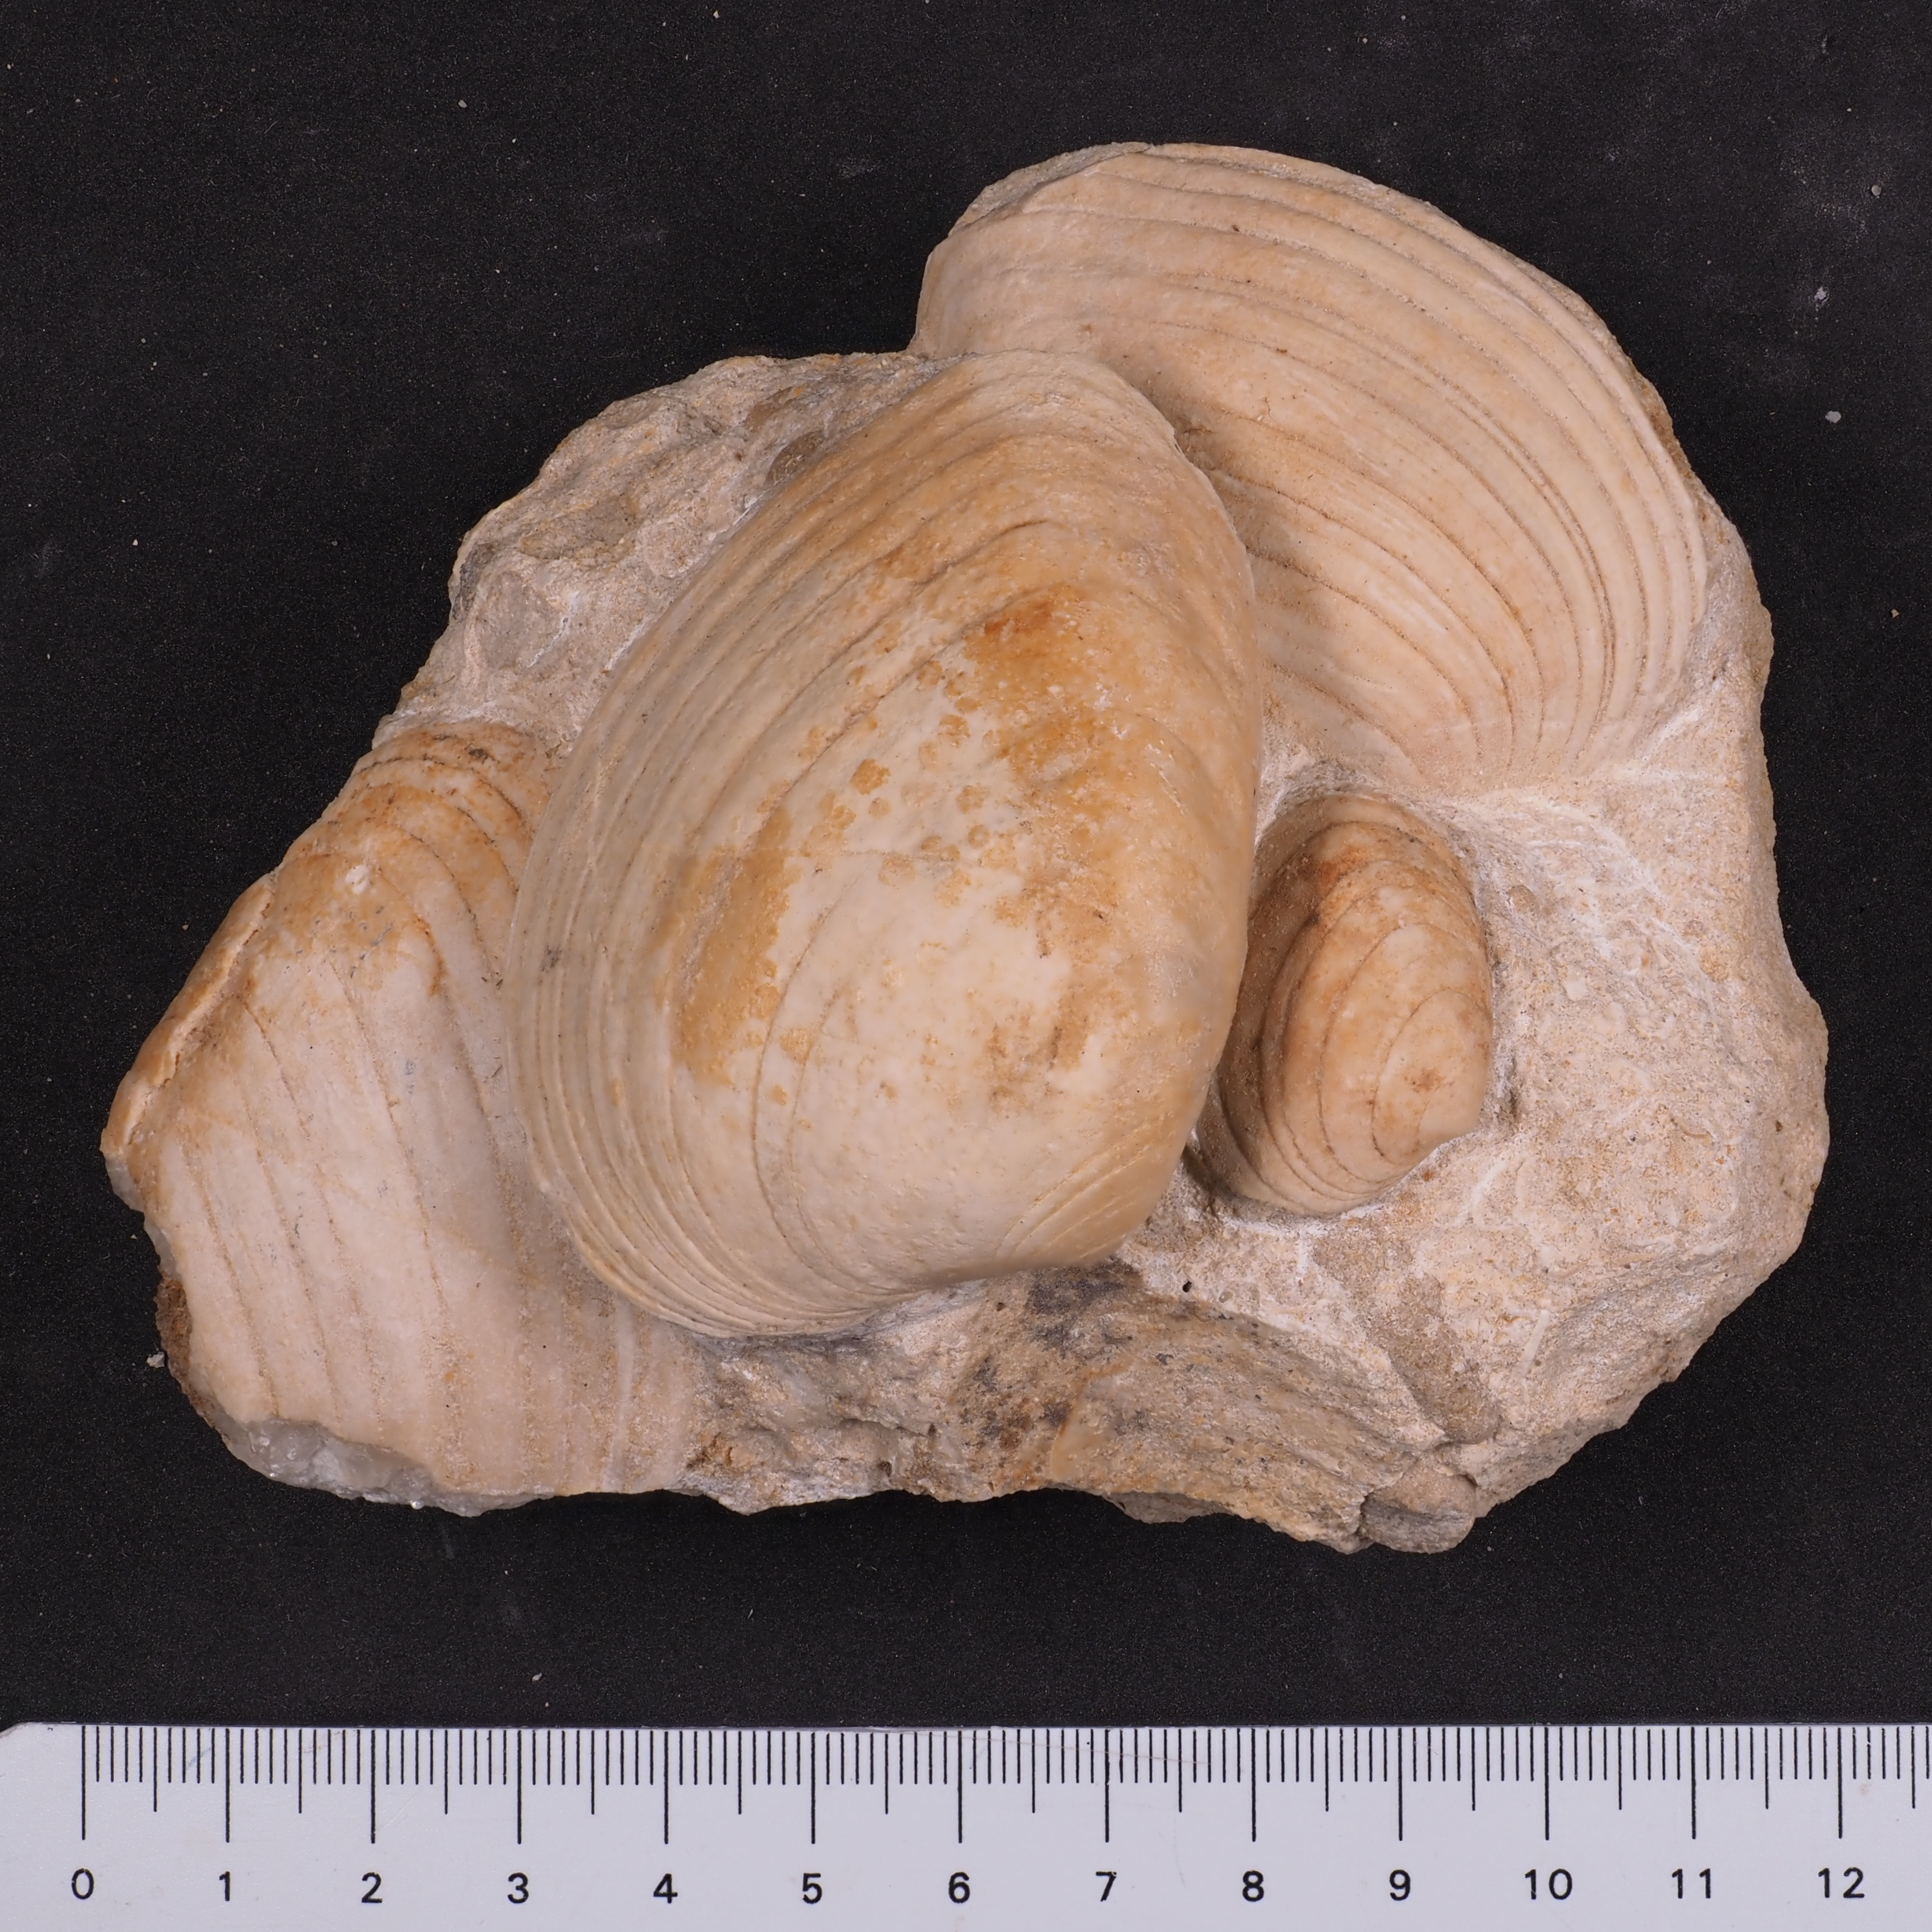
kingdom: Animalia
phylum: Mollusca
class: Bivalvia
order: Carditida
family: Cardiniidae
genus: Cardinia
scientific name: Cardinia
